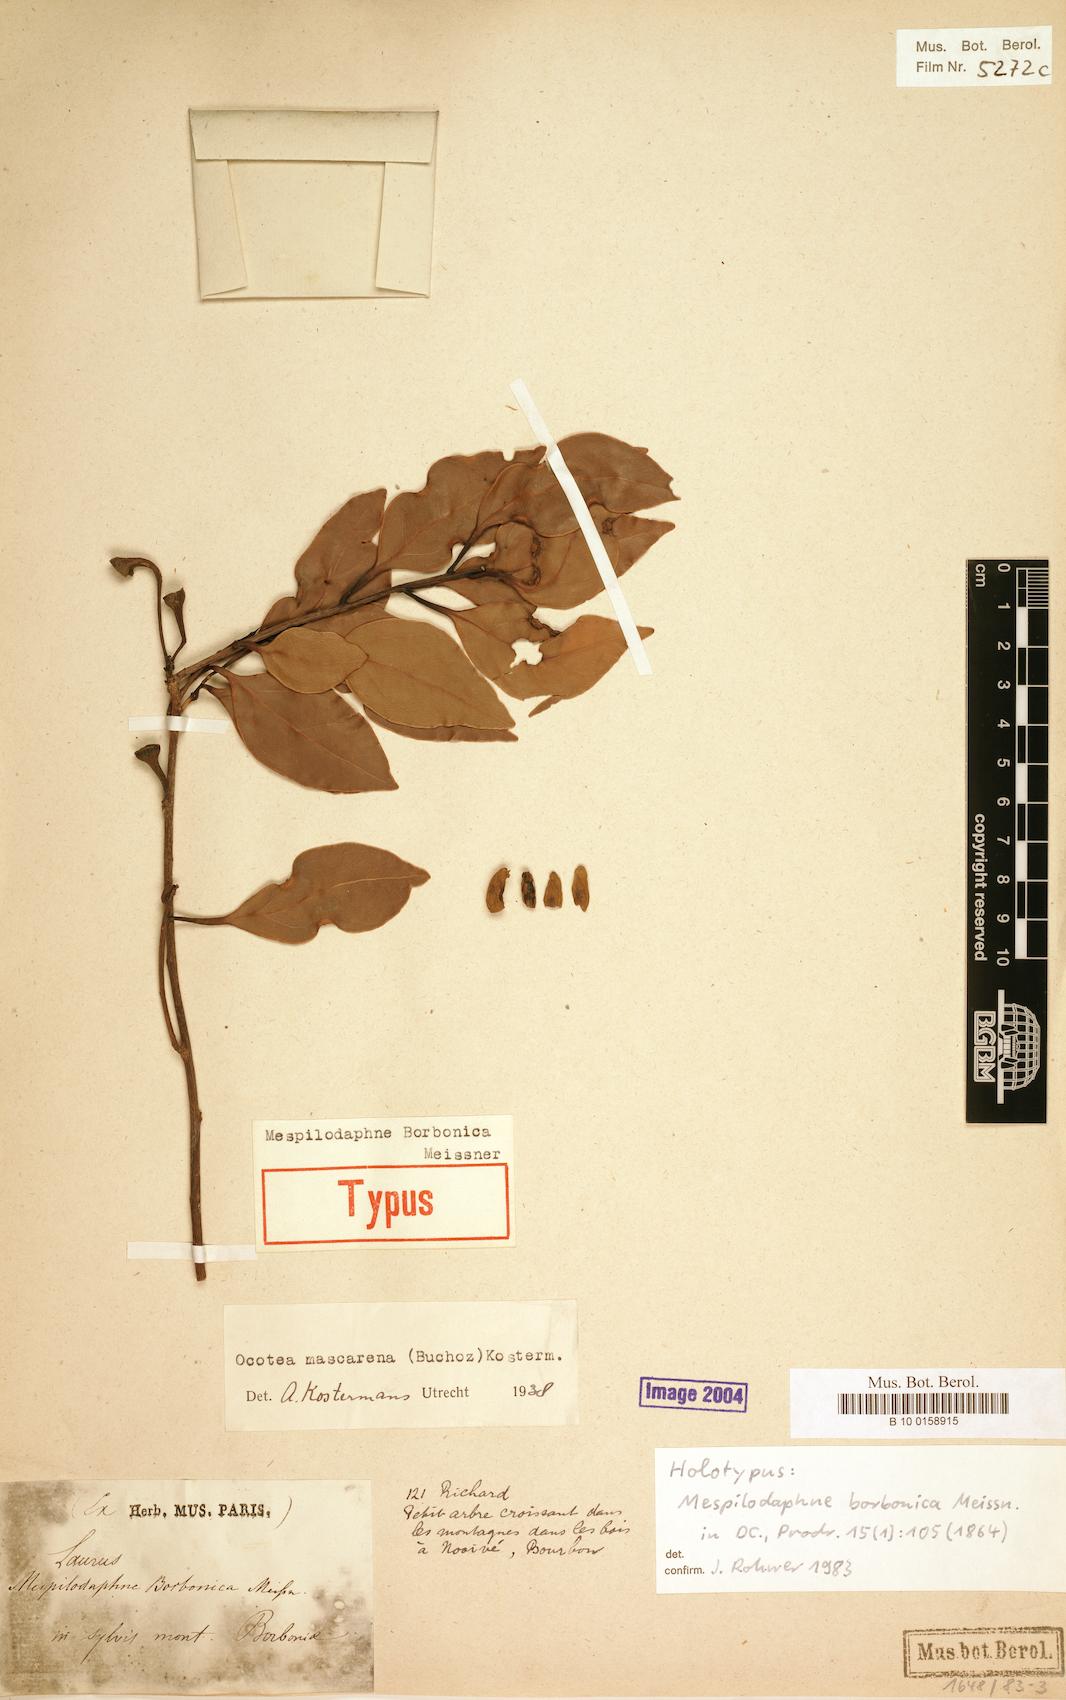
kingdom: Plantae
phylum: Tracheophyta
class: Magnoliopsida
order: Laurales
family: Lauraceae
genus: Mespilodaphne
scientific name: Mespilodaphne cupularis
